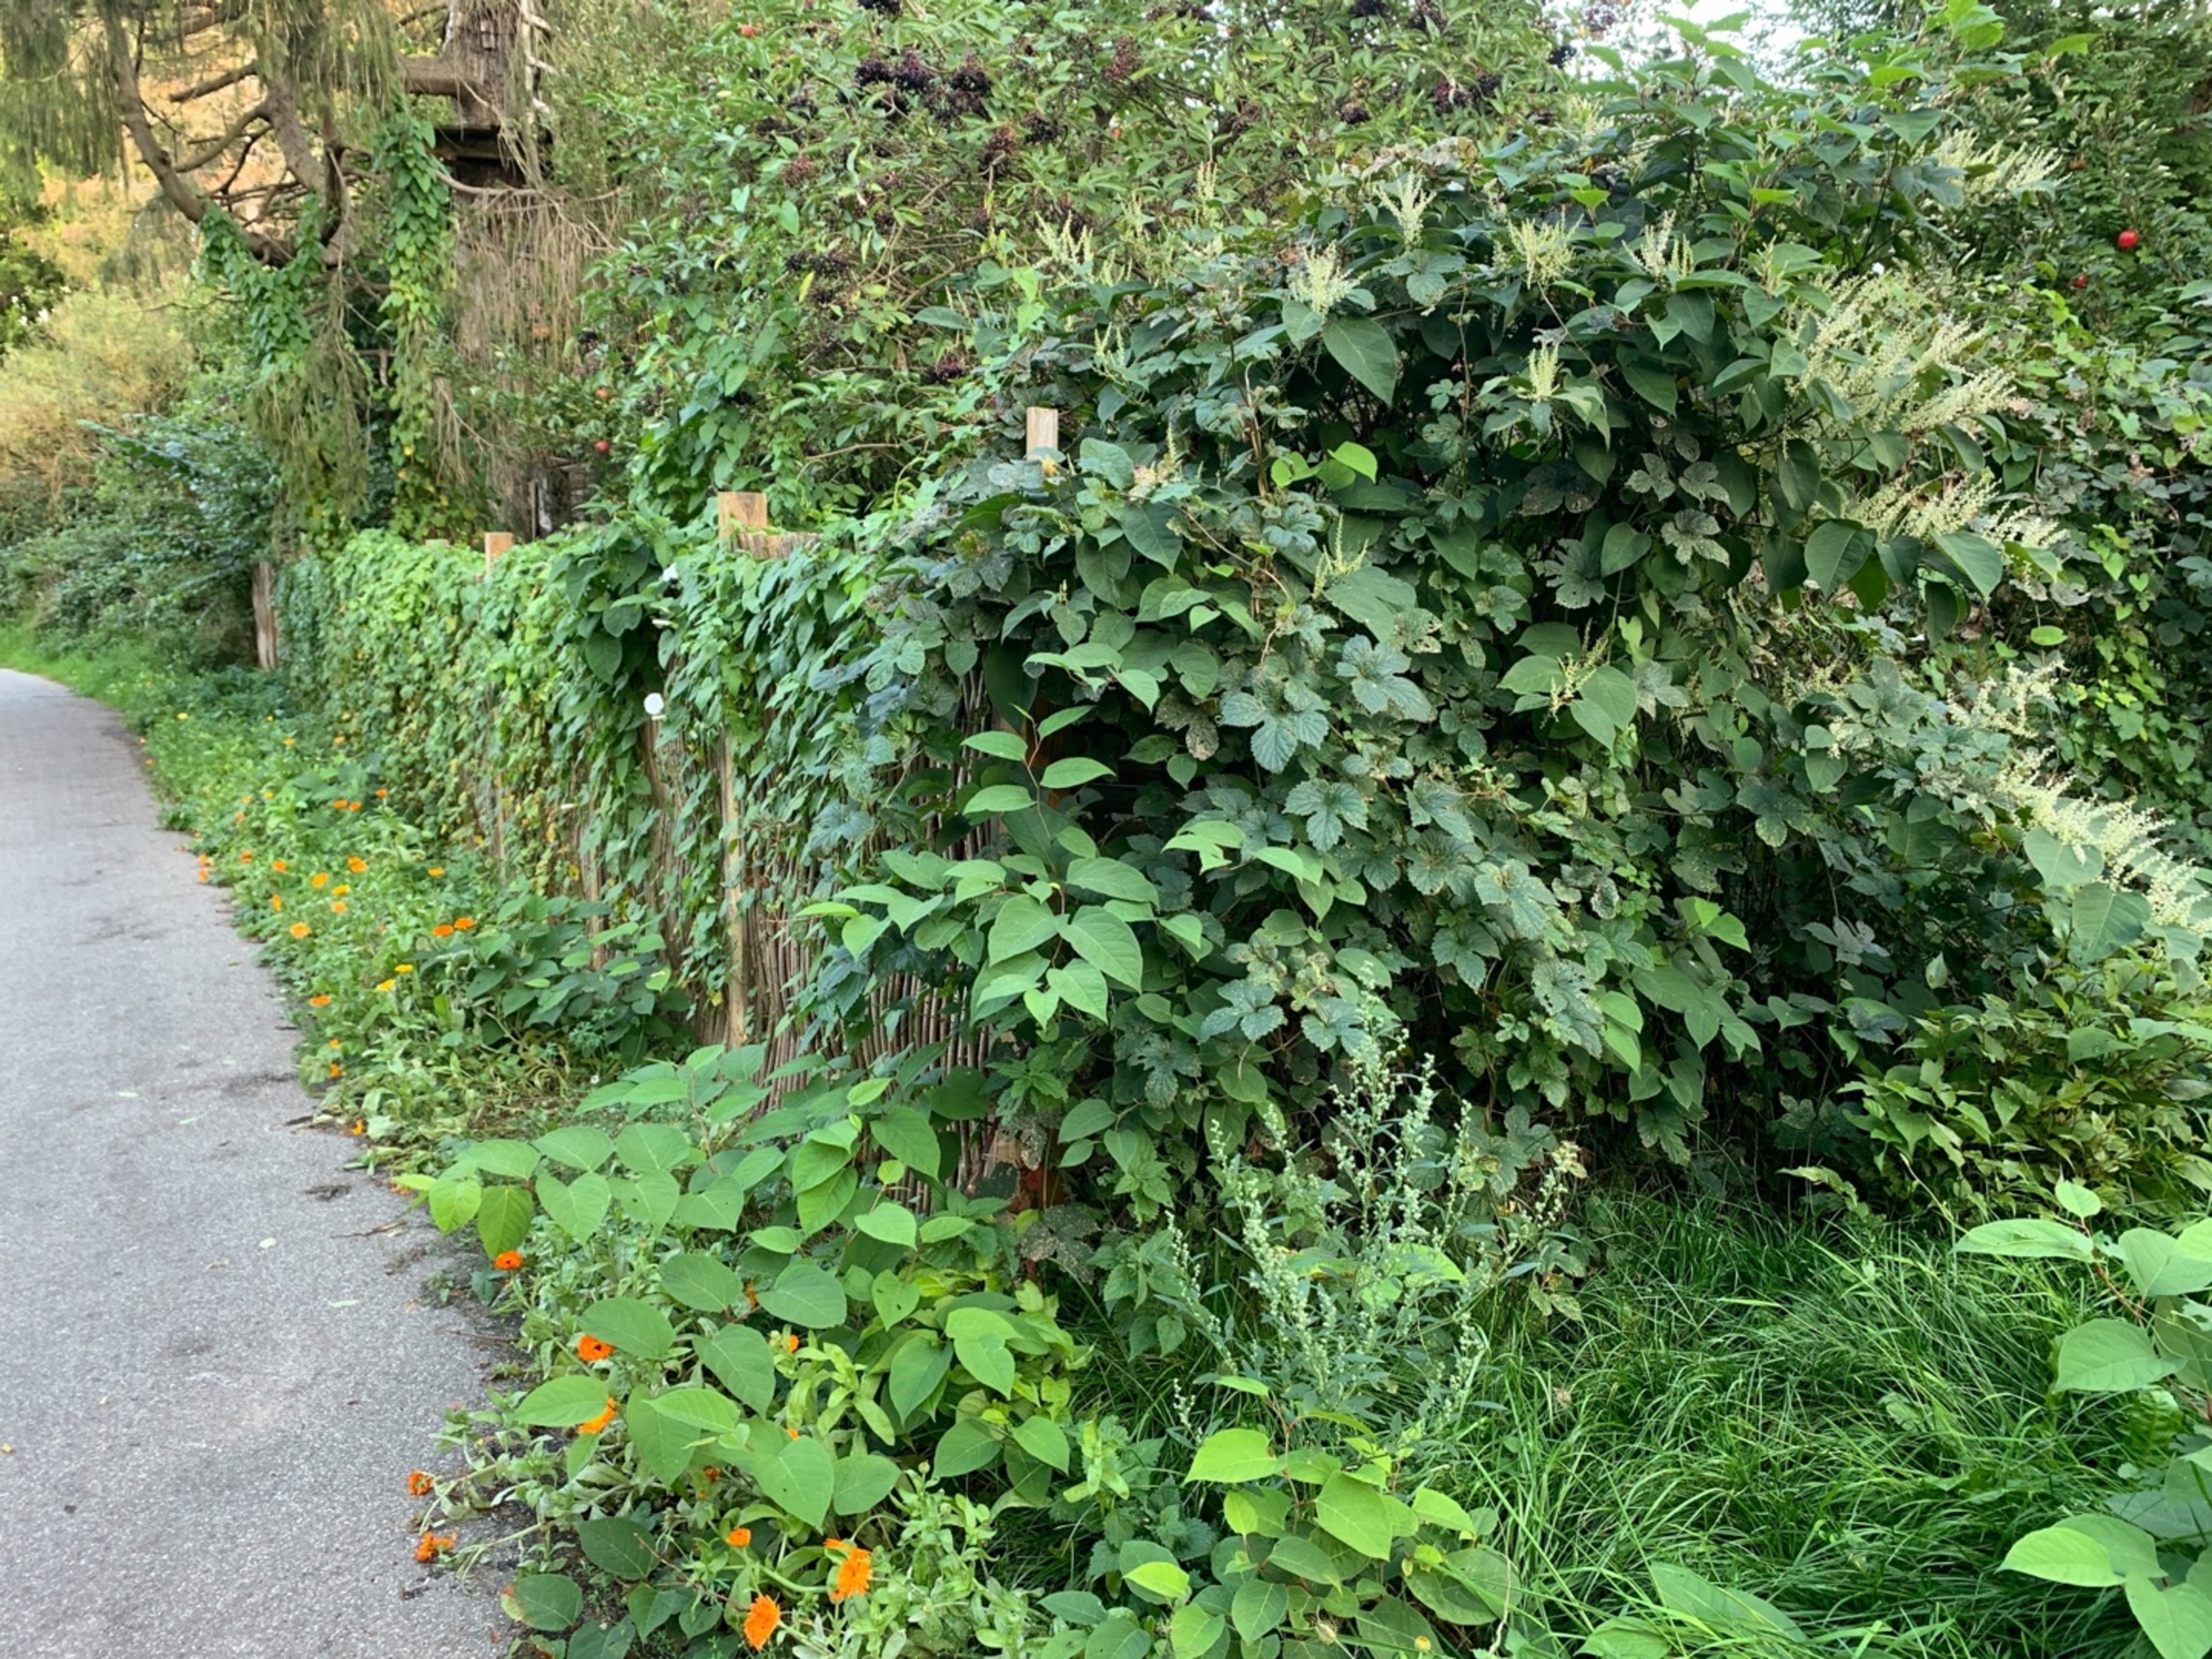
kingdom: Plantae
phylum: Tracheophyta
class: Magnoliopsida
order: Caryophyllales
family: Polygonaceae
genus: Reynoutria
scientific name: Reynoutria japonica
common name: Japan-pileurt
